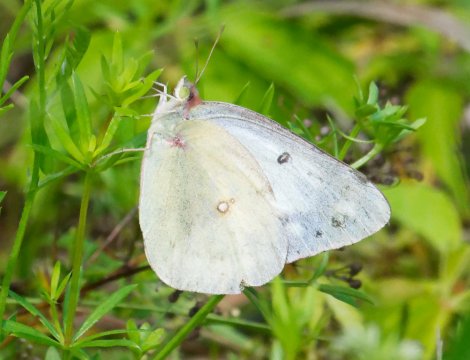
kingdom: Animalia
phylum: Arthropoda
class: Insecta
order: Lepidoptera
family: Pieridae
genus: Colias
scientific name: Colias
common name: Clouded Yellows
